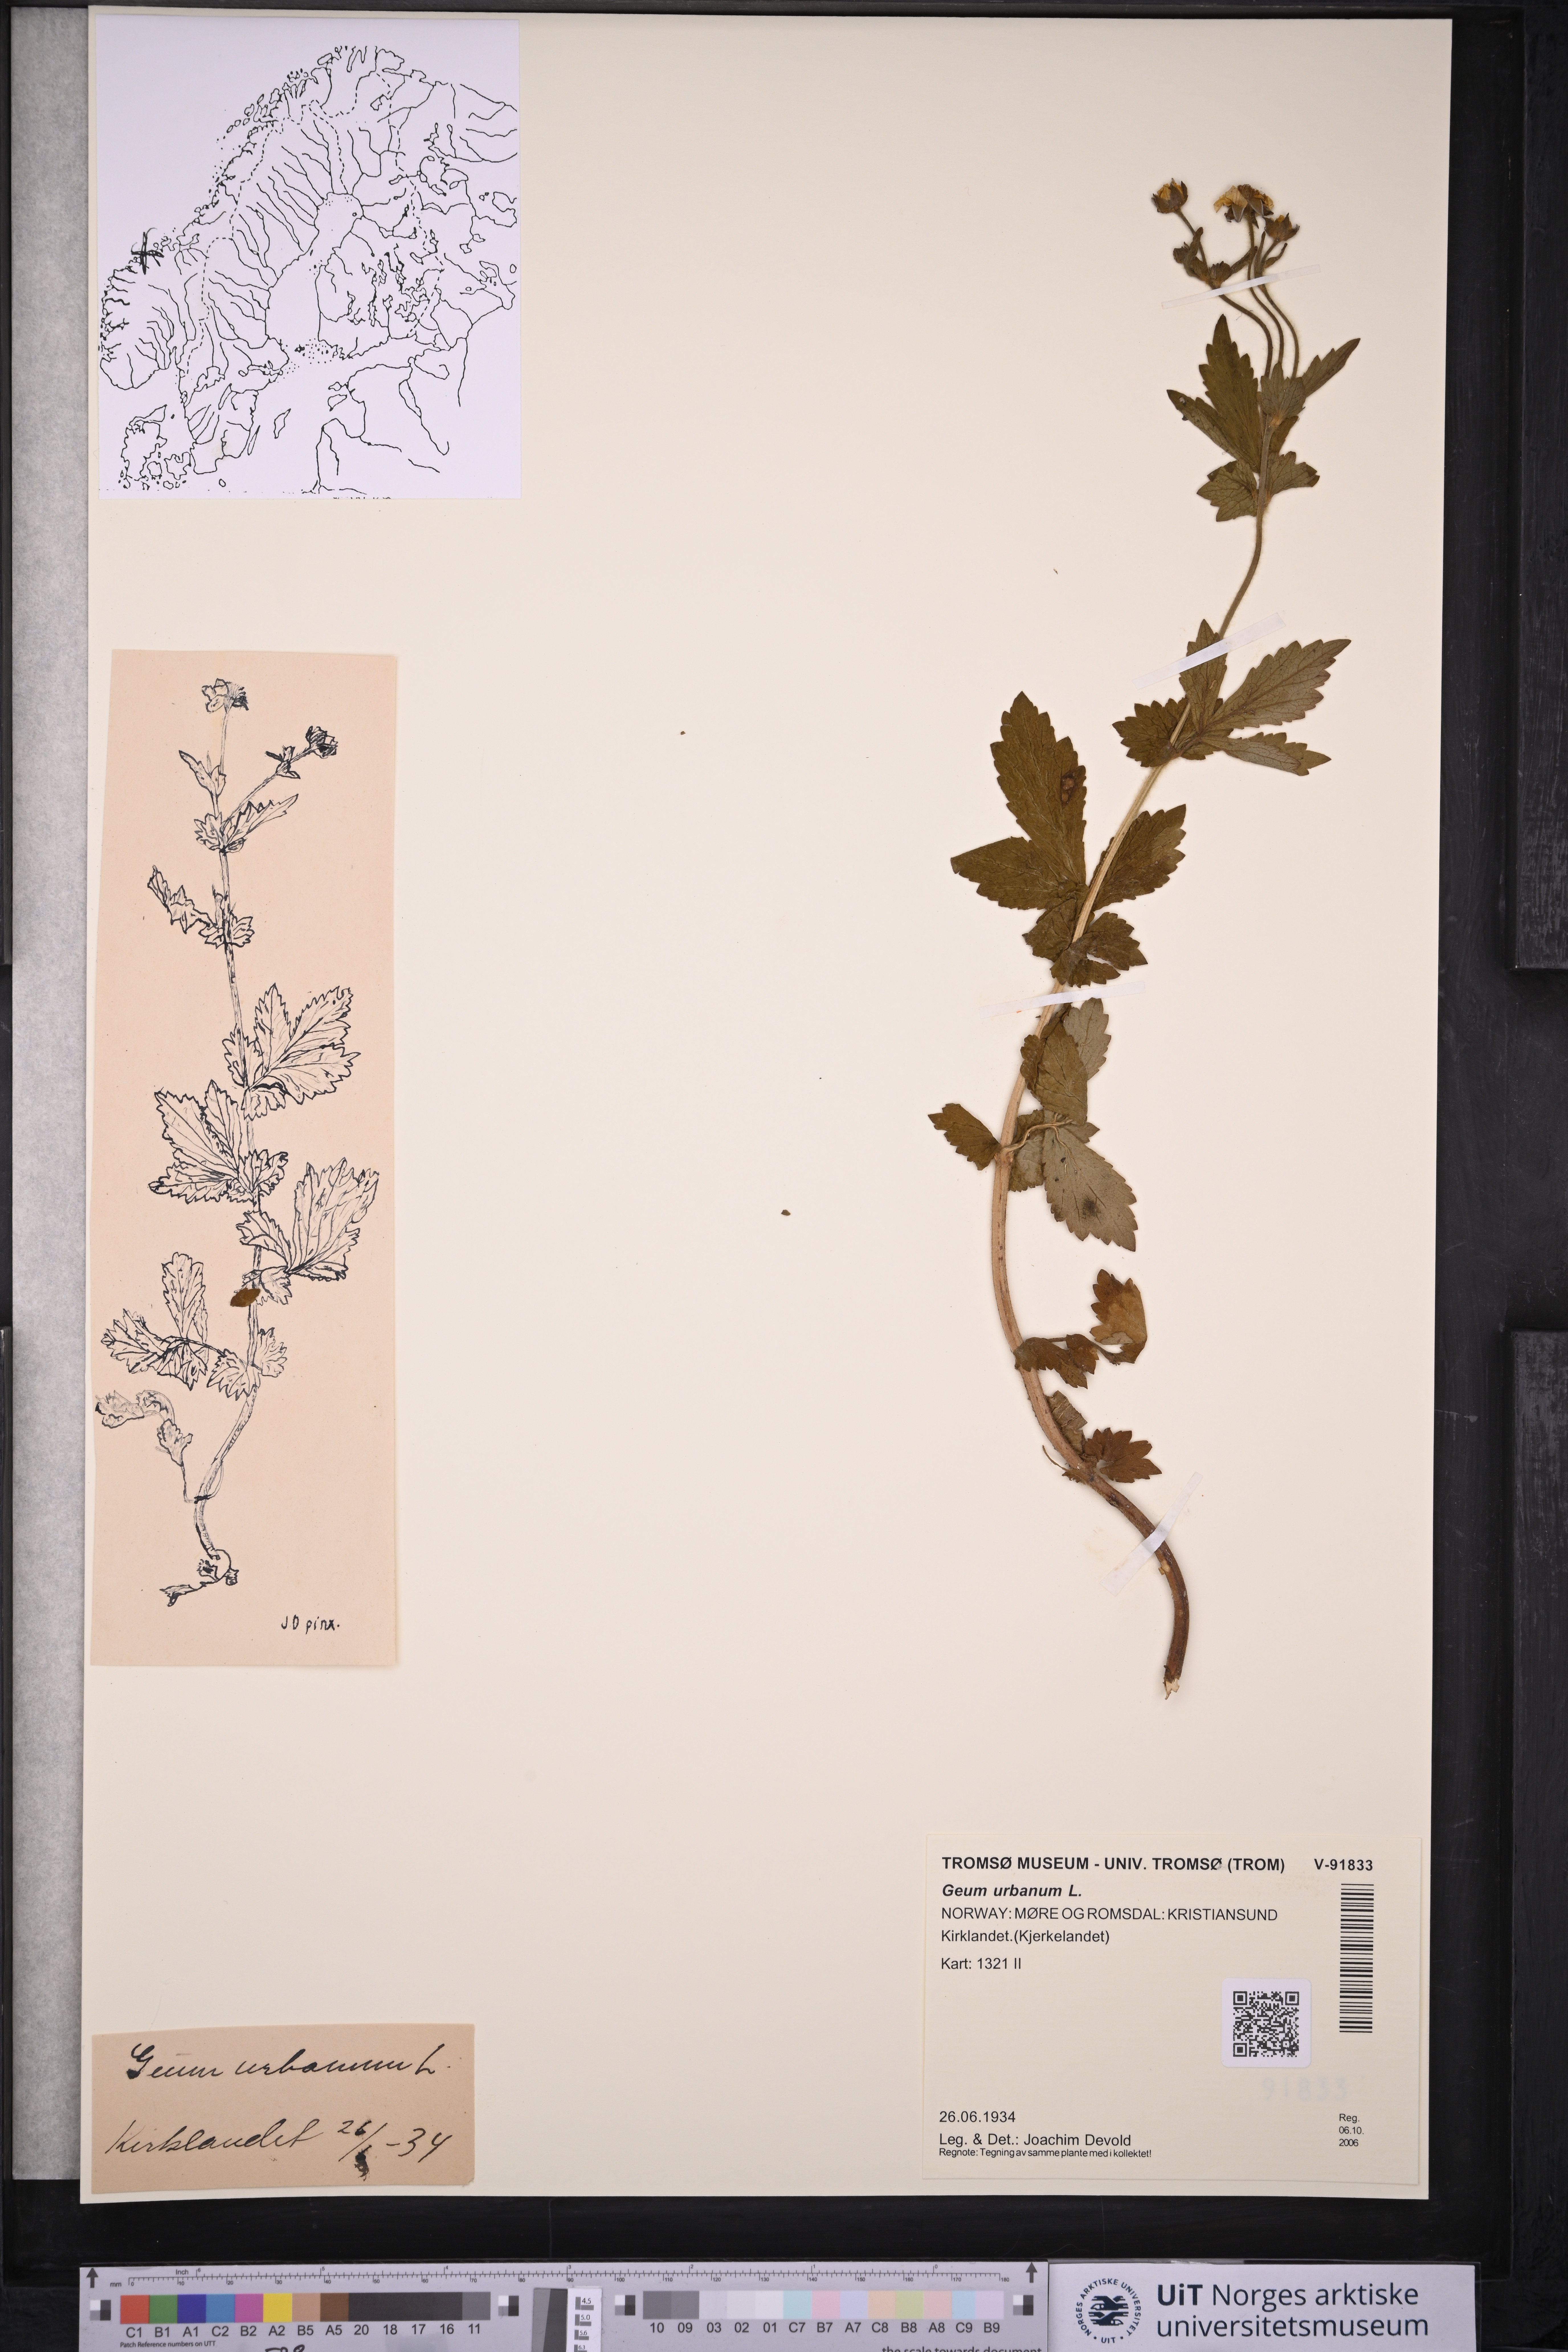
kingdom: Plantae
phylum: Tracheophyta
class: Magnoliopsida
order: Rosales
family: Rosaceae
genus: Geum
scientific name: Geum urbanum
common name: Wood avens
